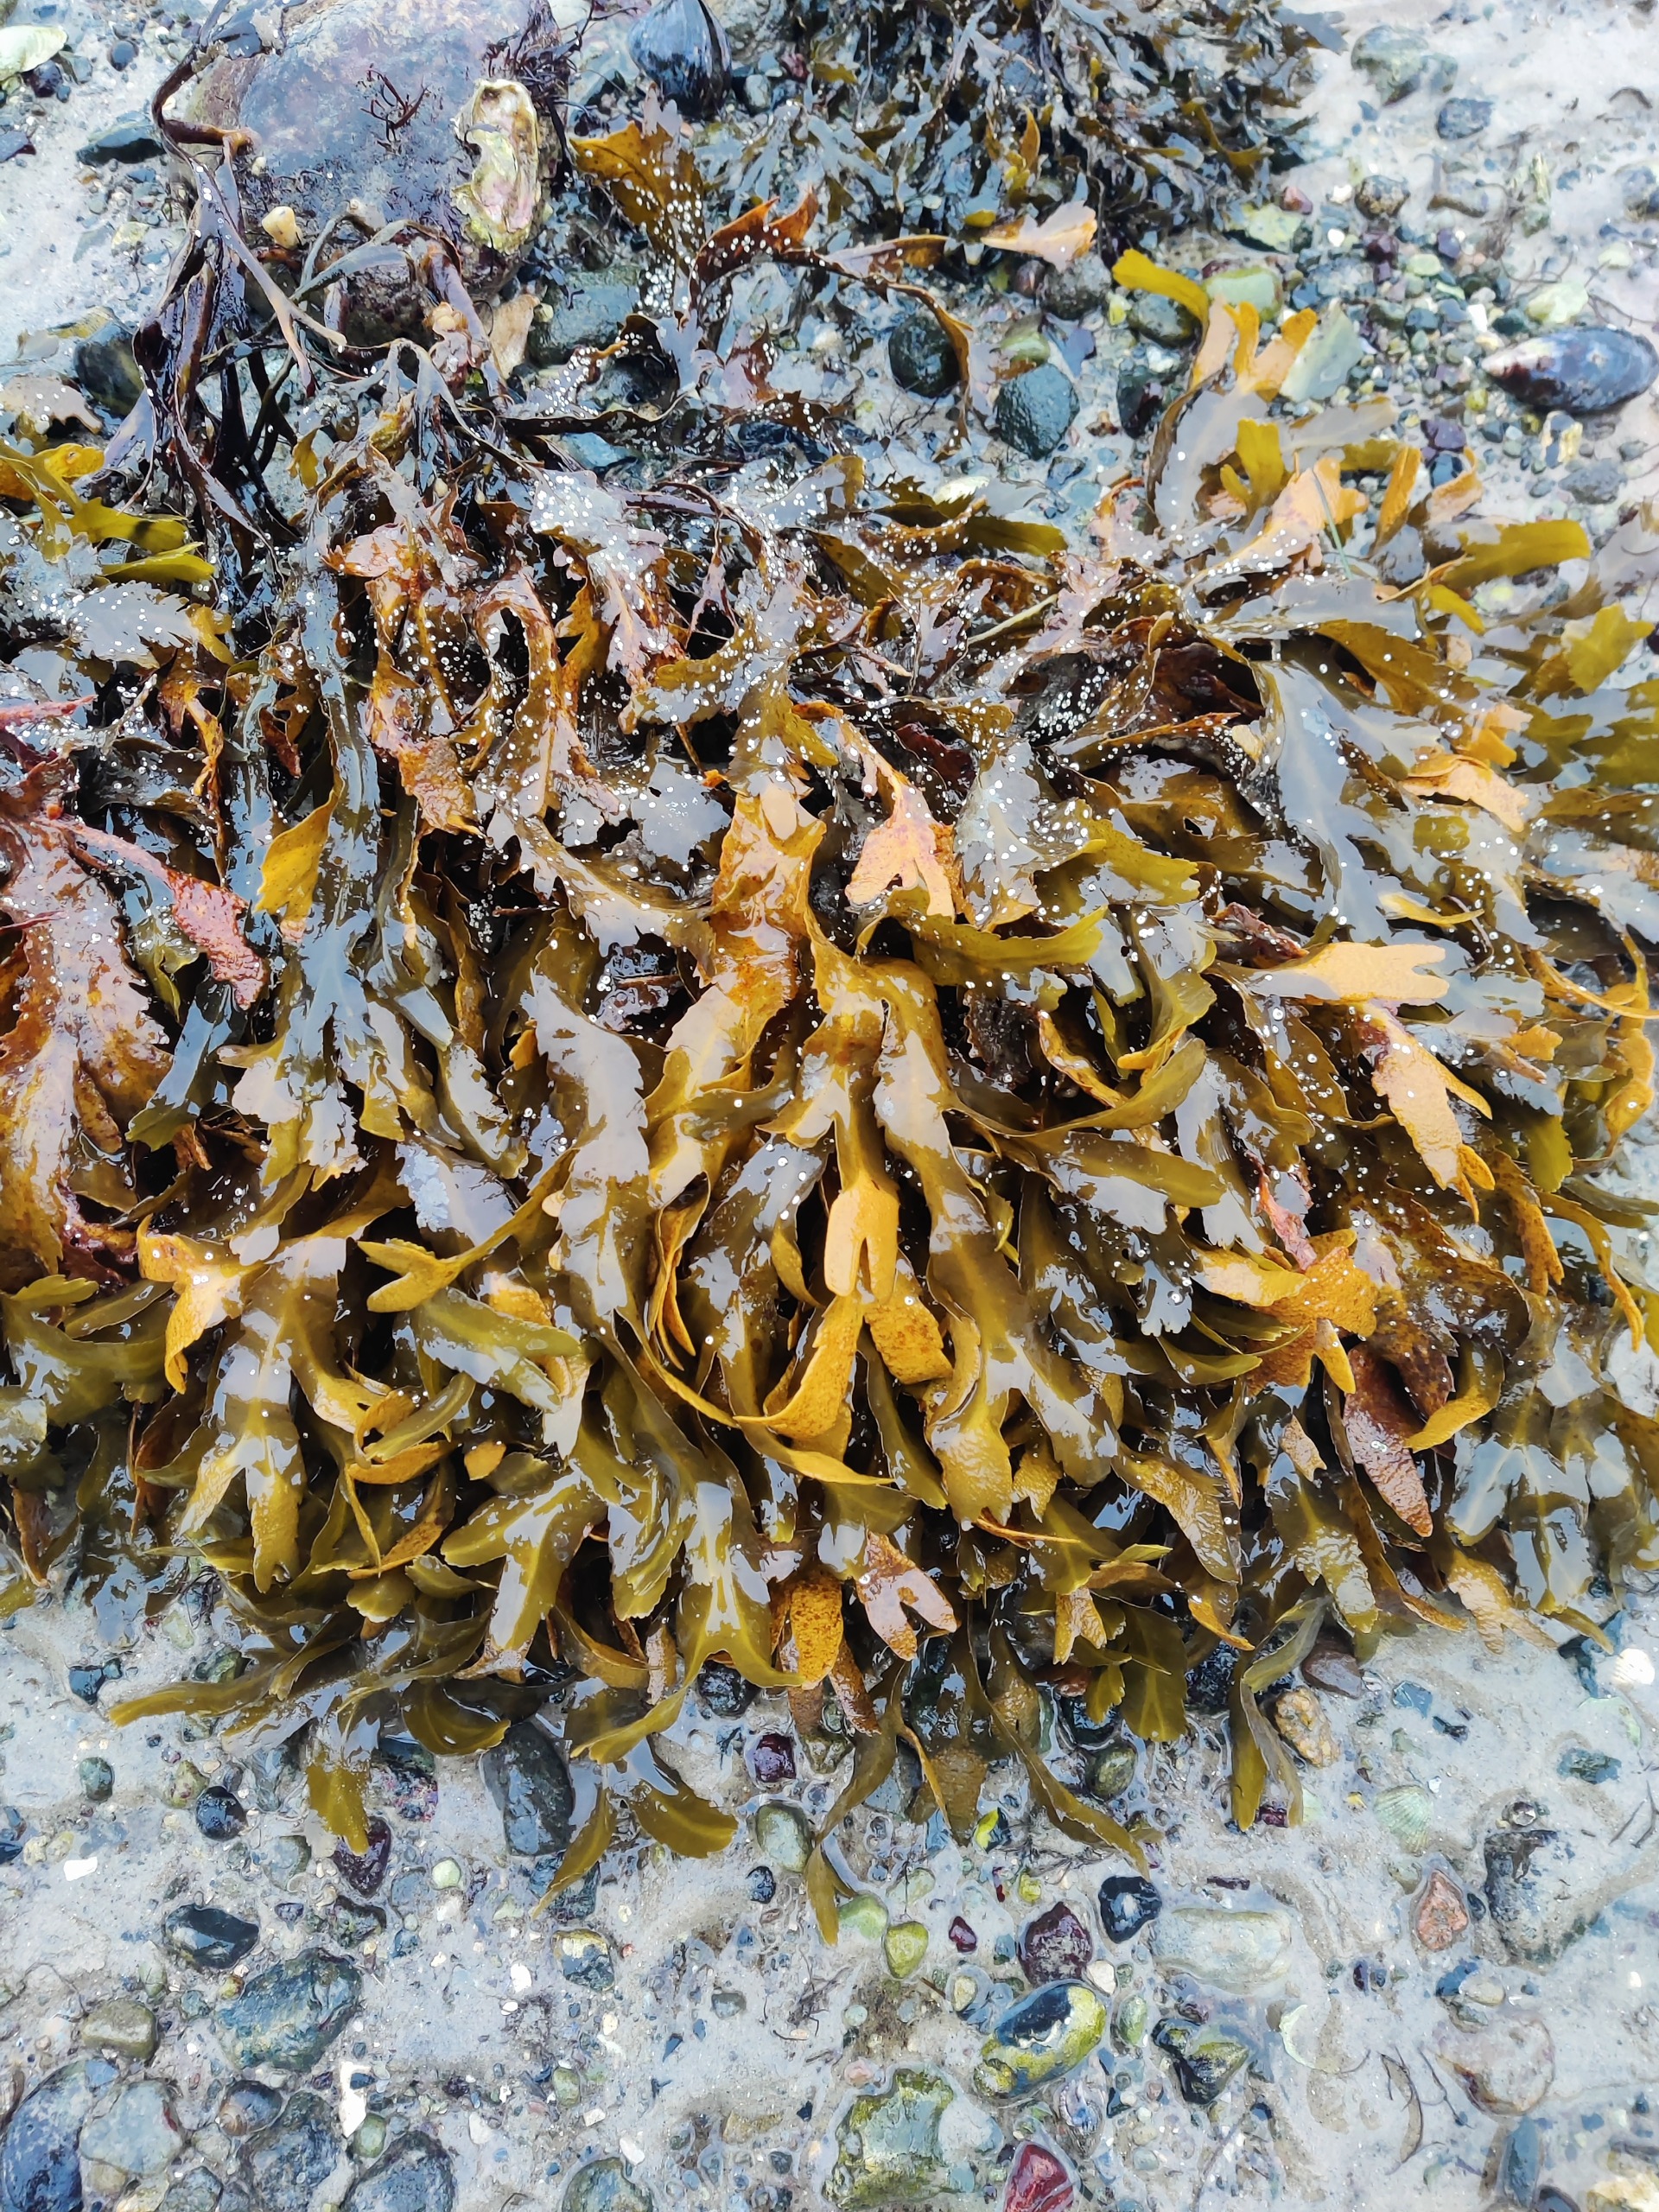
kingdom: Chromista
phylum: Ochrophyta
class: Phaeophyceae
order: Fucales
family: Fucaceae
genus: Fucus
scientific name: Fucus serratus
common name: Savtang
